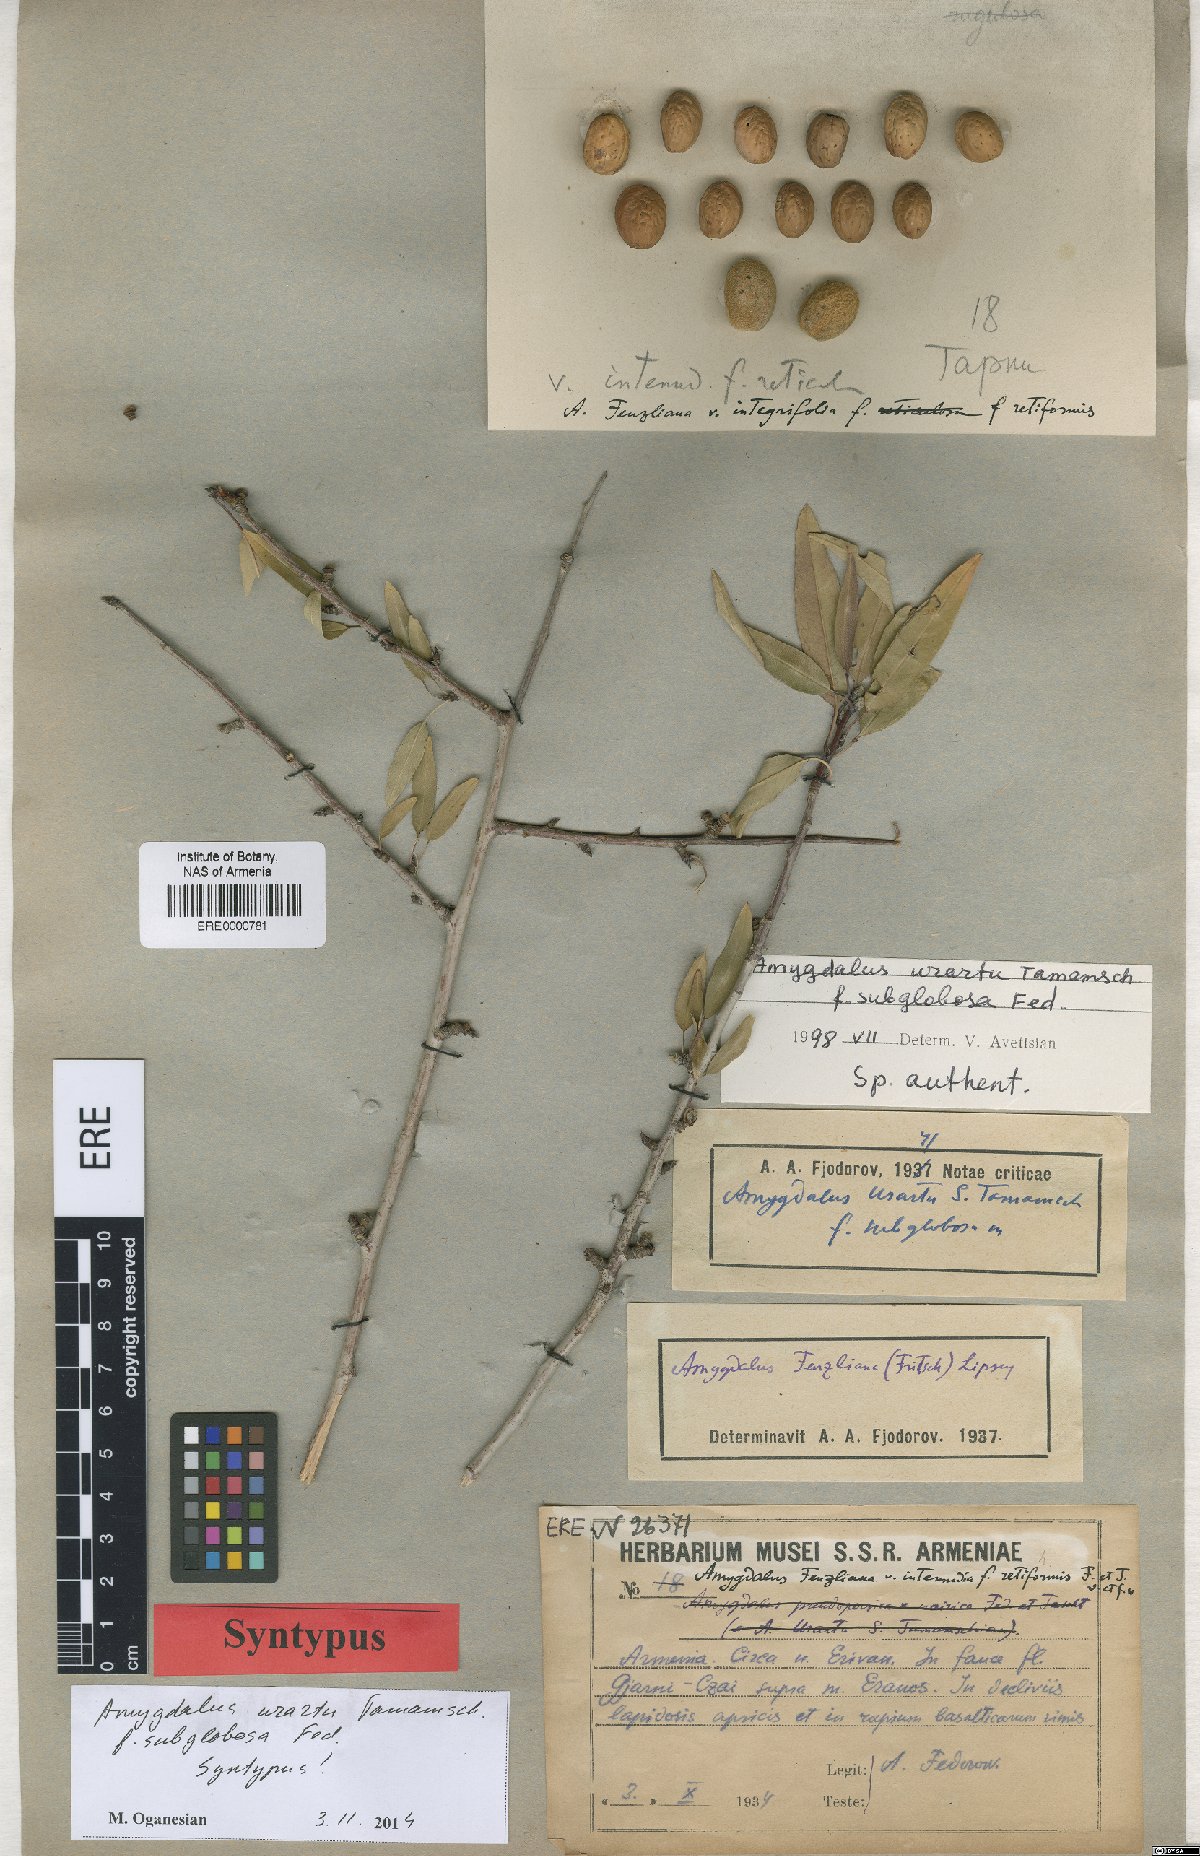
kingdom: Plantae
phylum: Tracheophyta
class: Magnoliopsida
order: Rosales
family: Rosaceae
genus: Prunus
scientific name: Prunus urartu
